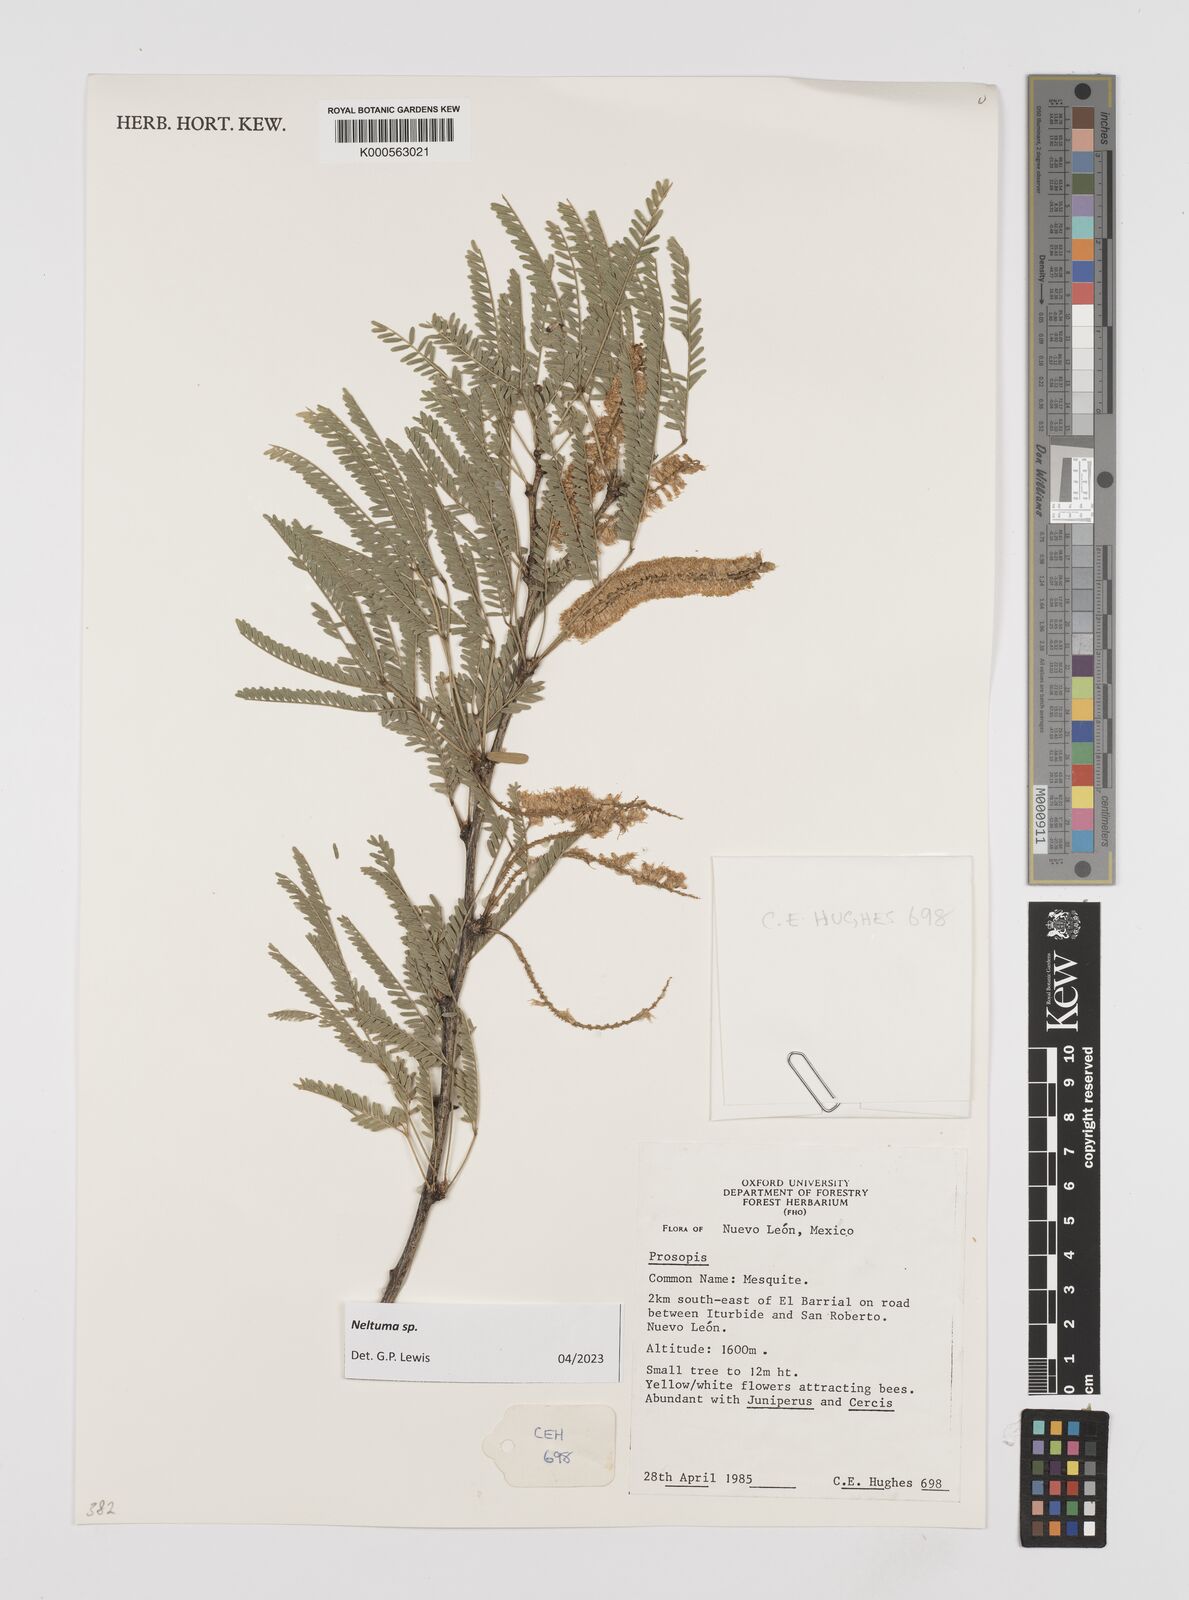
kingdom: Plantae
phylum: Tracheophyta
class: Magnoliopsida
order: Fabales
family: Fabaceae
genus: Prosopis
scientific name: Prosopis
